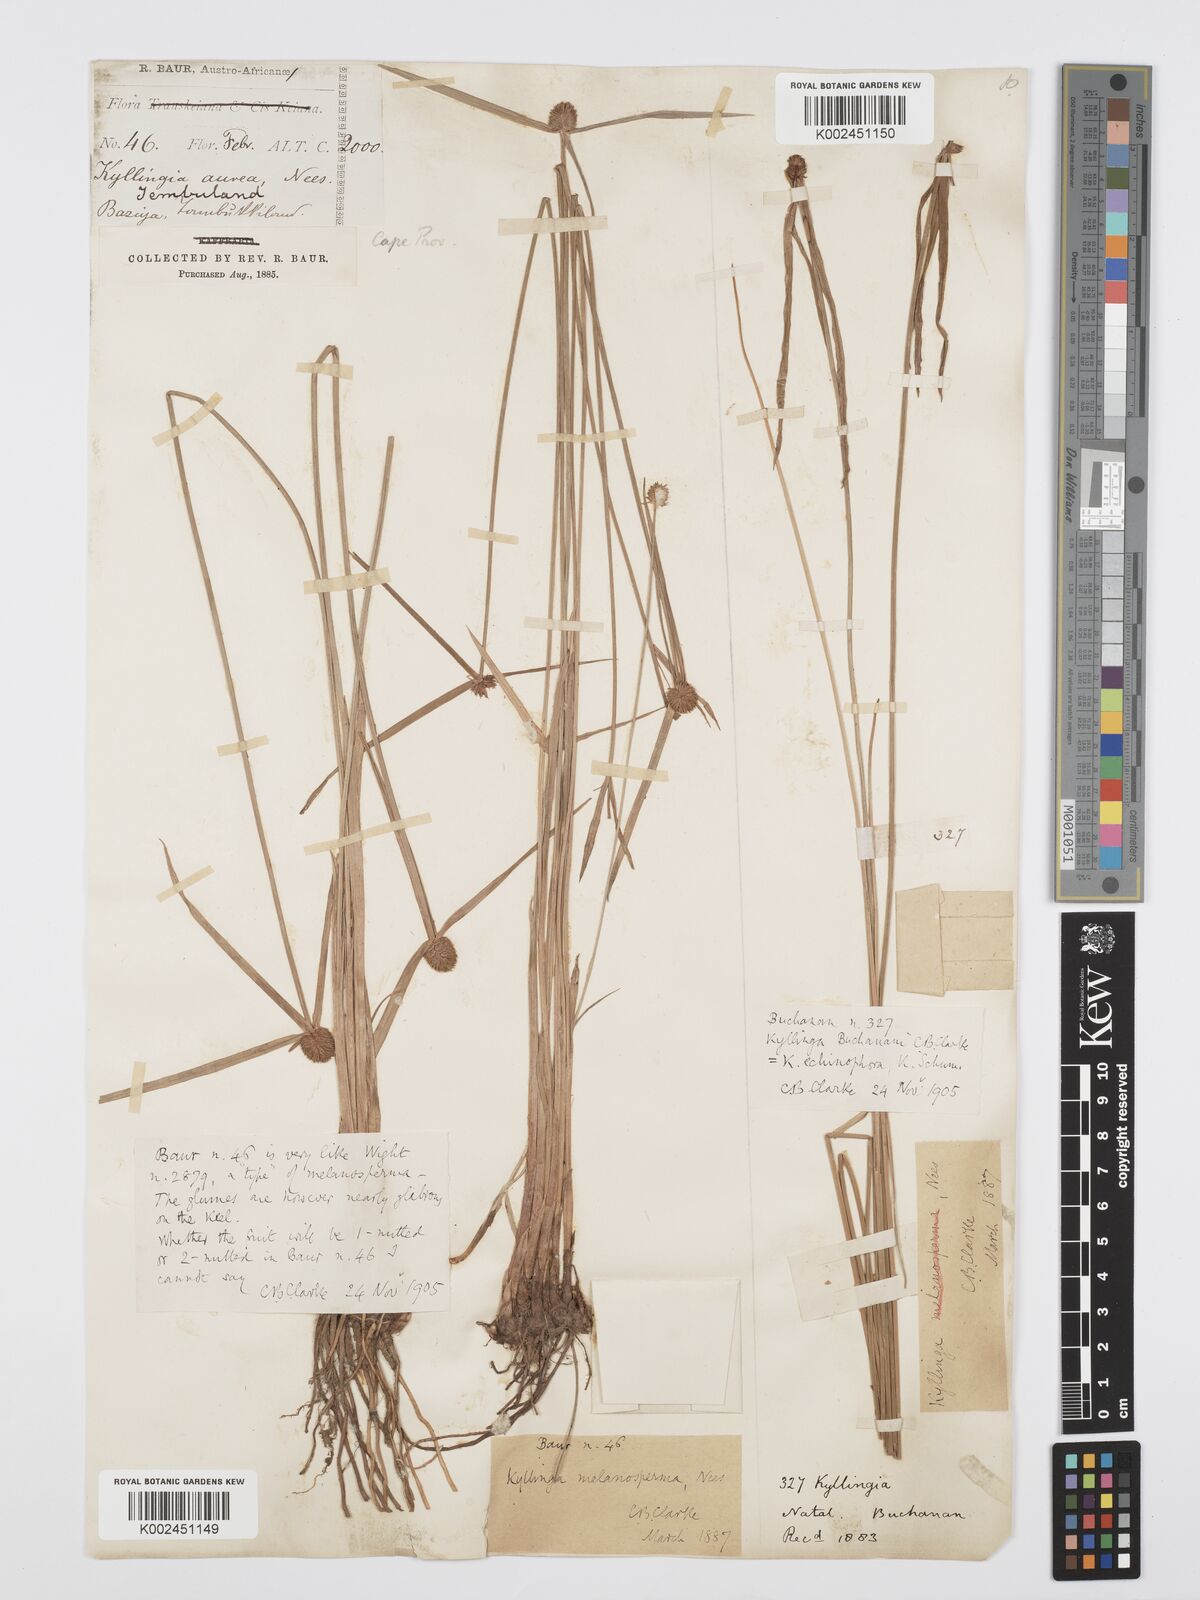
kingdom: Plantae
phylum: Tracheophyta
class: Liliopsida
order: Poales
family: Cyperaceae
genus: Cyperus
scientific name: Cyperus
